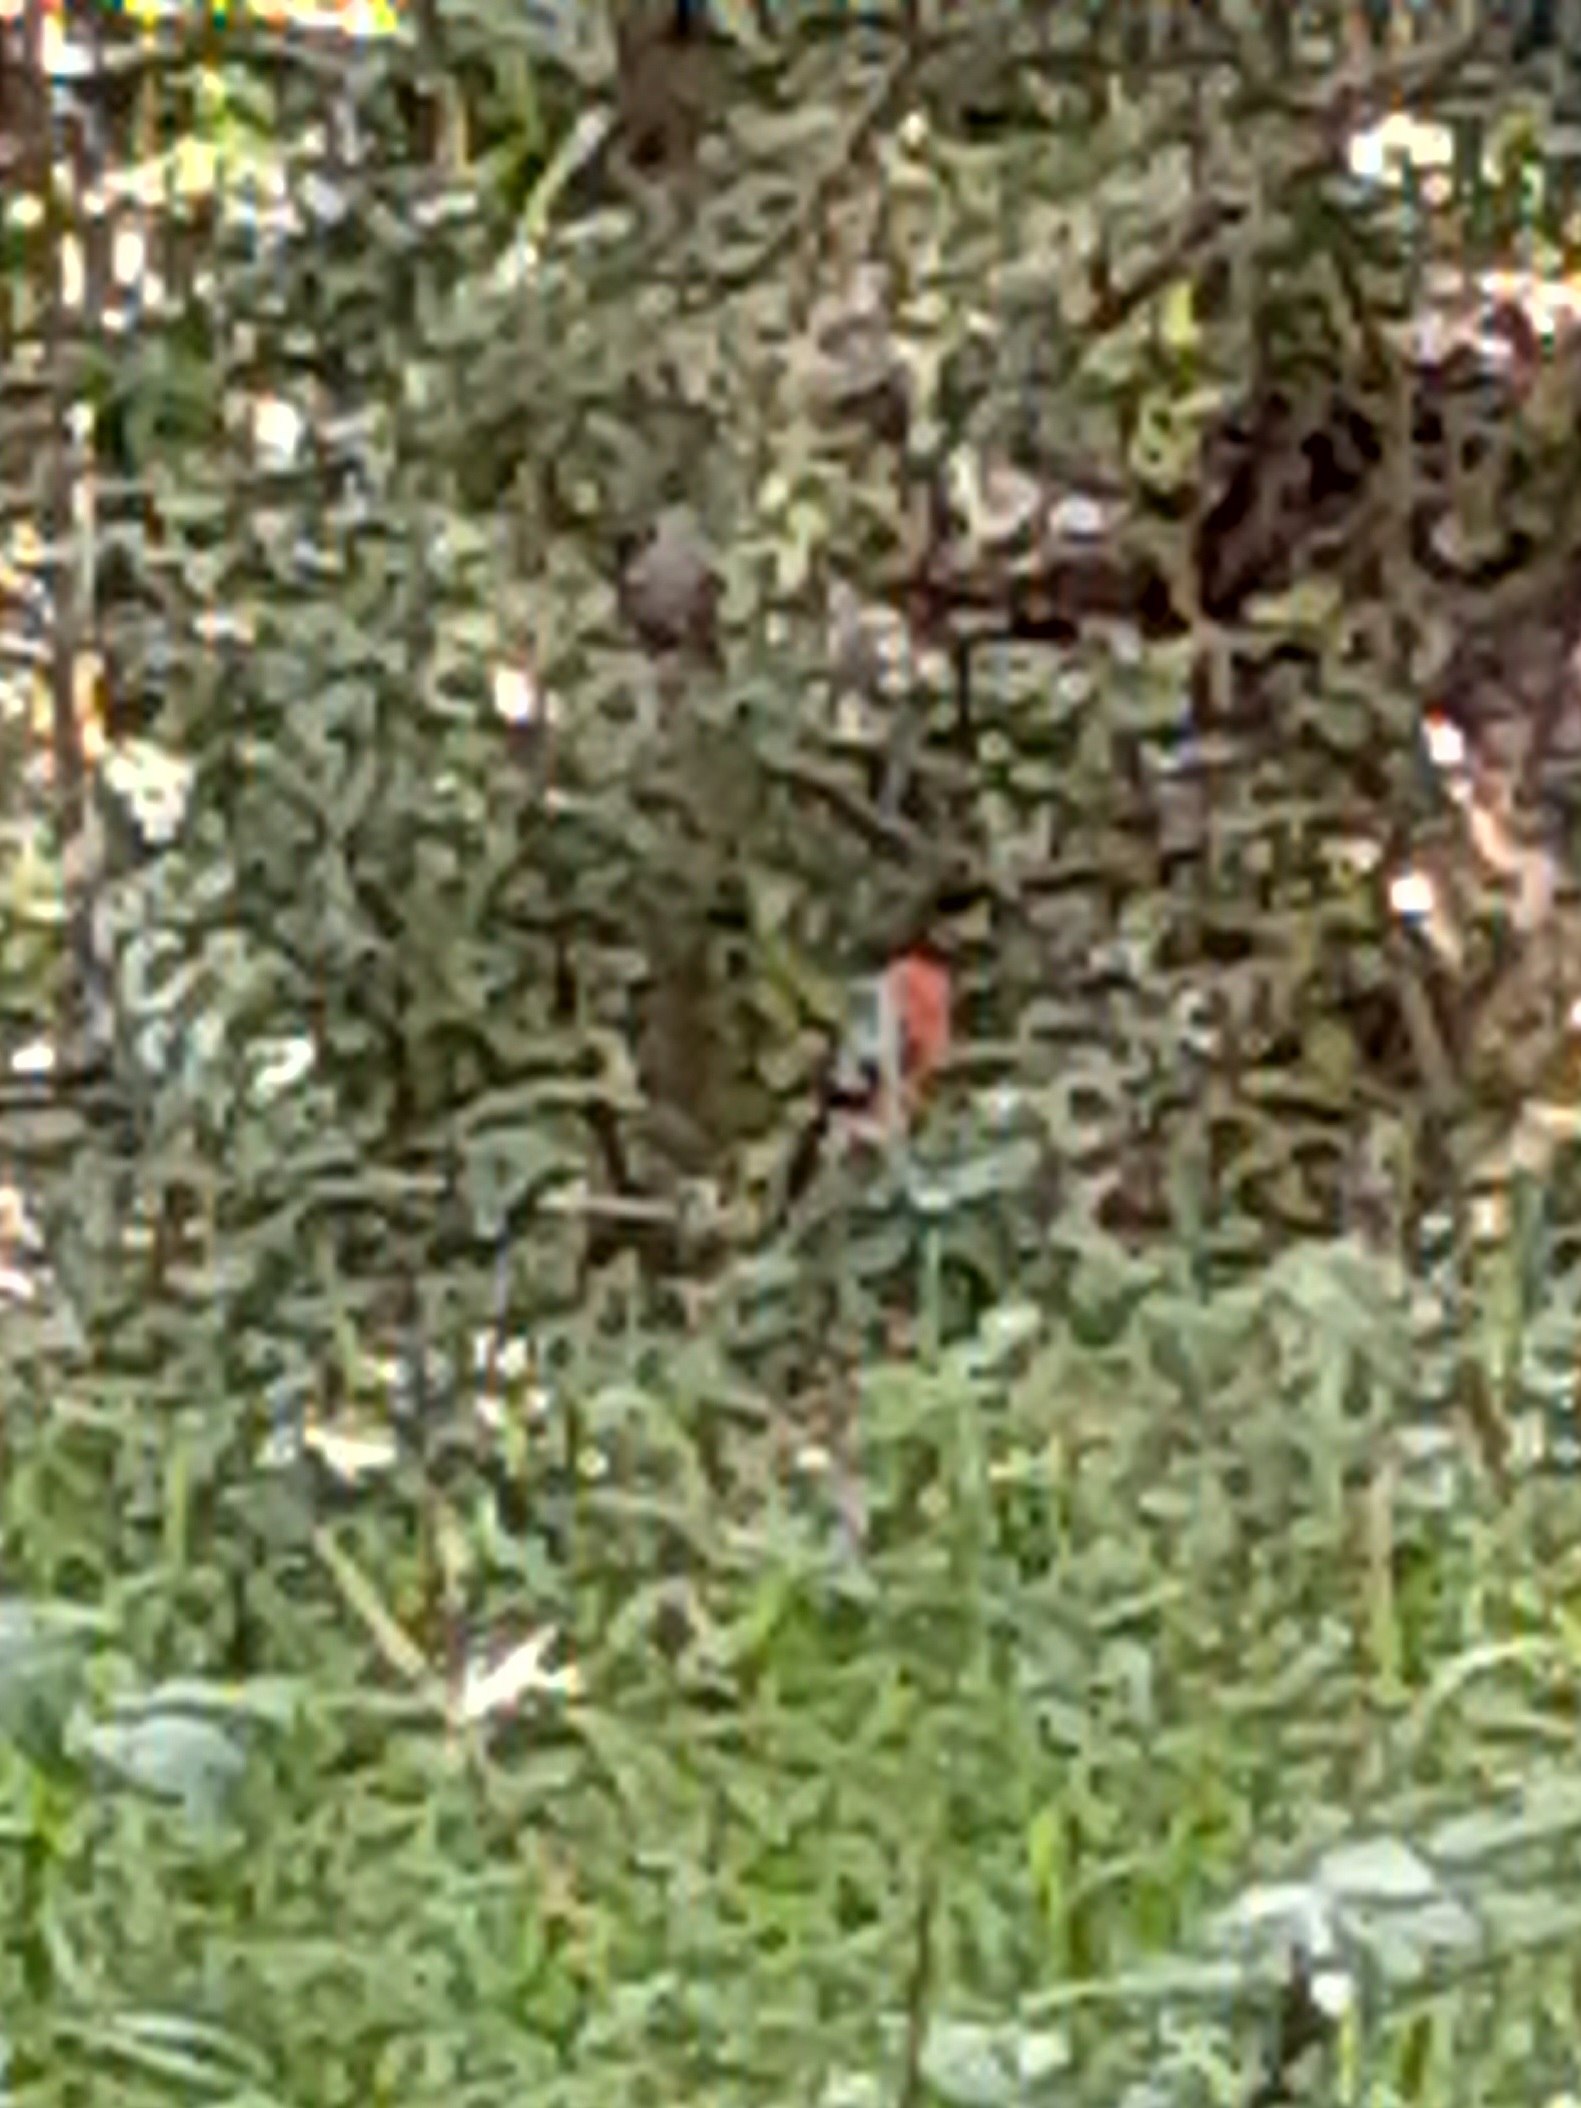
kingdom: Animalia
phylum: Chordata
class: Aves
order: Passeriformes
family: Fringillidae
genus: Pyrrhula
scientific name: Pyrrhula pyrrhula
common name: Dompap
